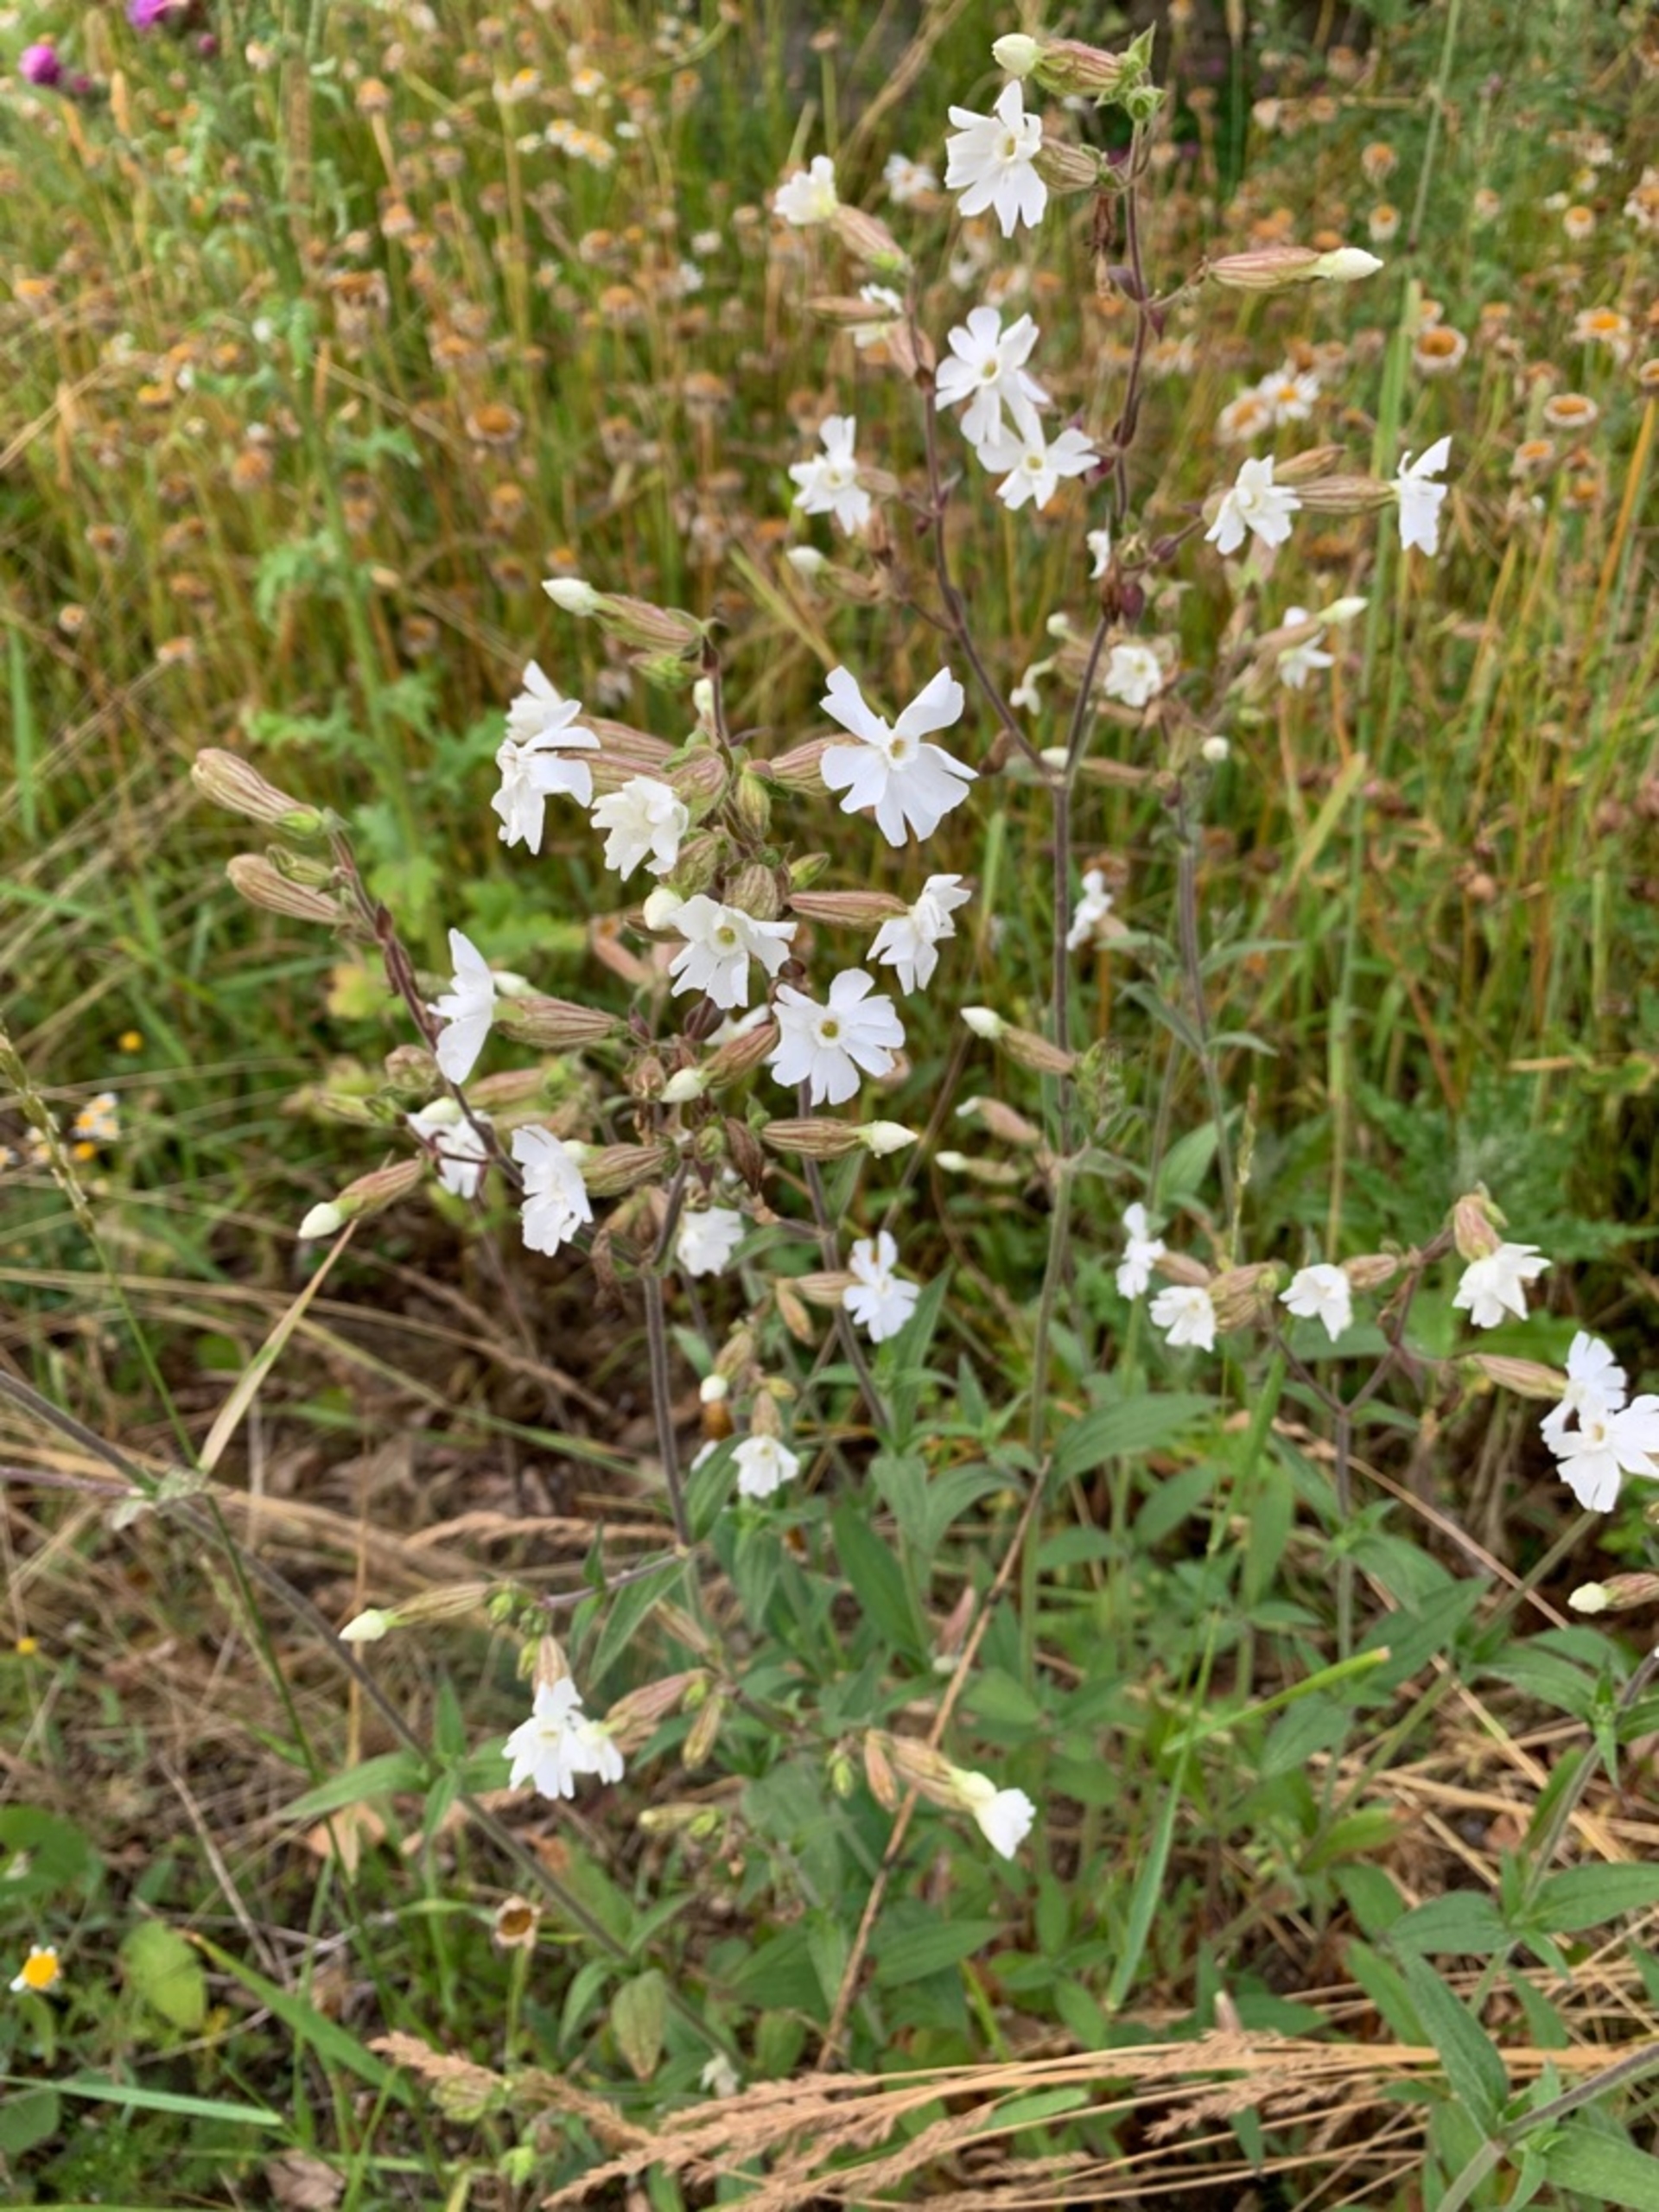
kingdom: Plantae
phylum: Tracheophyta
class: Magnoliopsida
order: Caryophyllales
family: Caryophyllaceae
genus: Silene
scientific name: Silene latifolia
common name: Aftenpragtstjerne
